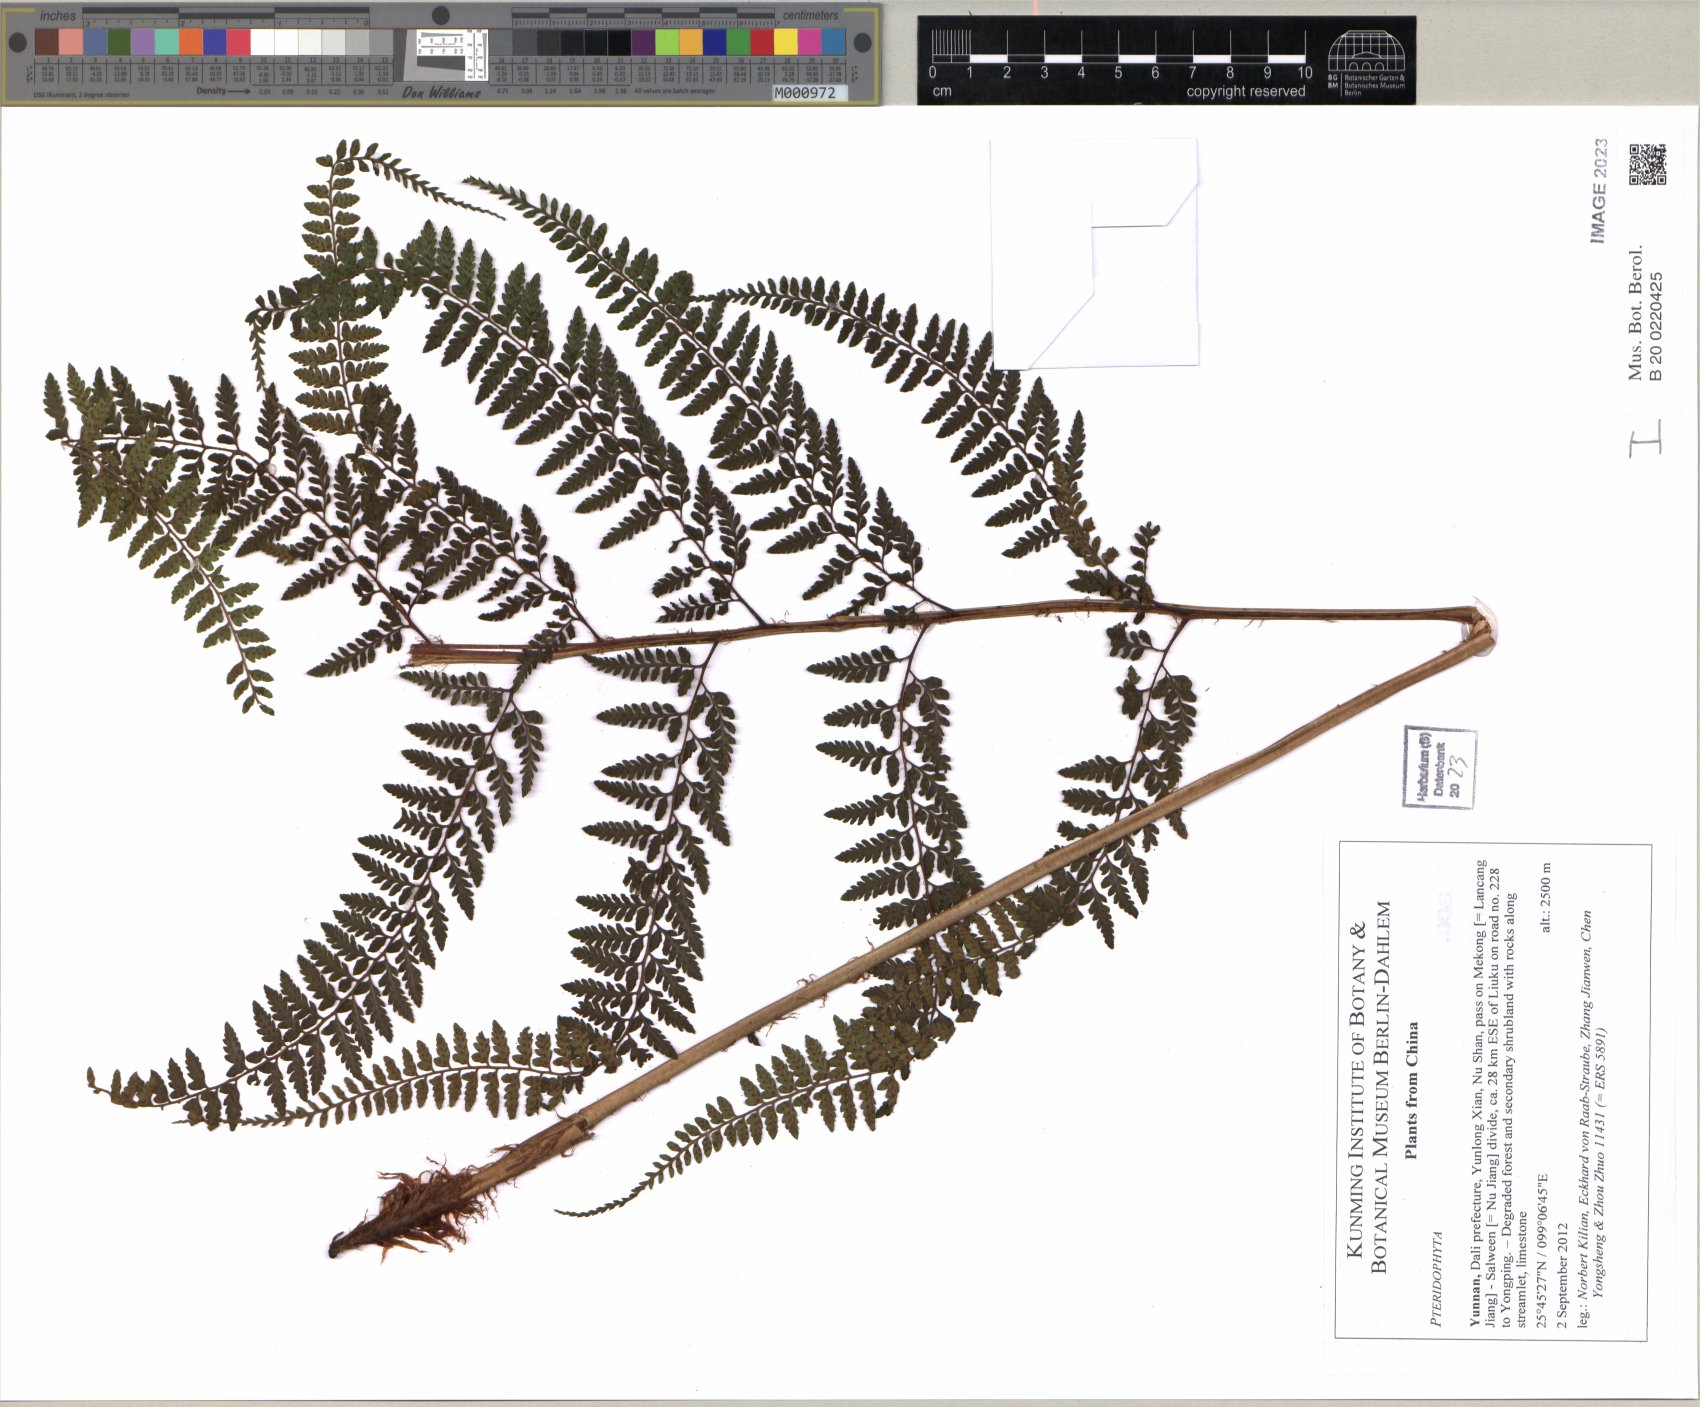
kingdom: Plantae
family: Pteridophyta
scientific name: Pteridophyta
